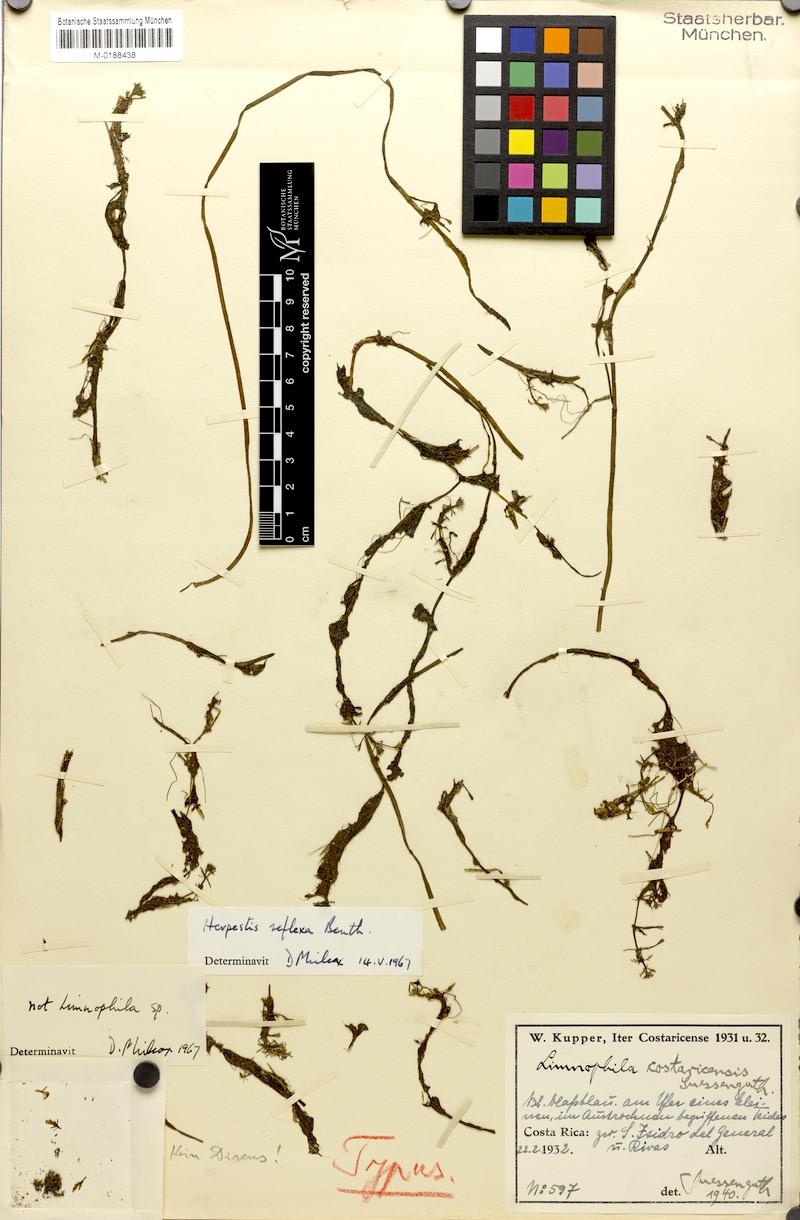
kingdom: Plantae
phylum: Tracheophyta
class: Magnoliopsida
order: Lamiales
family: Plantaginaceae
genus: Bacopa
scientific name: Bacopa reflexa
